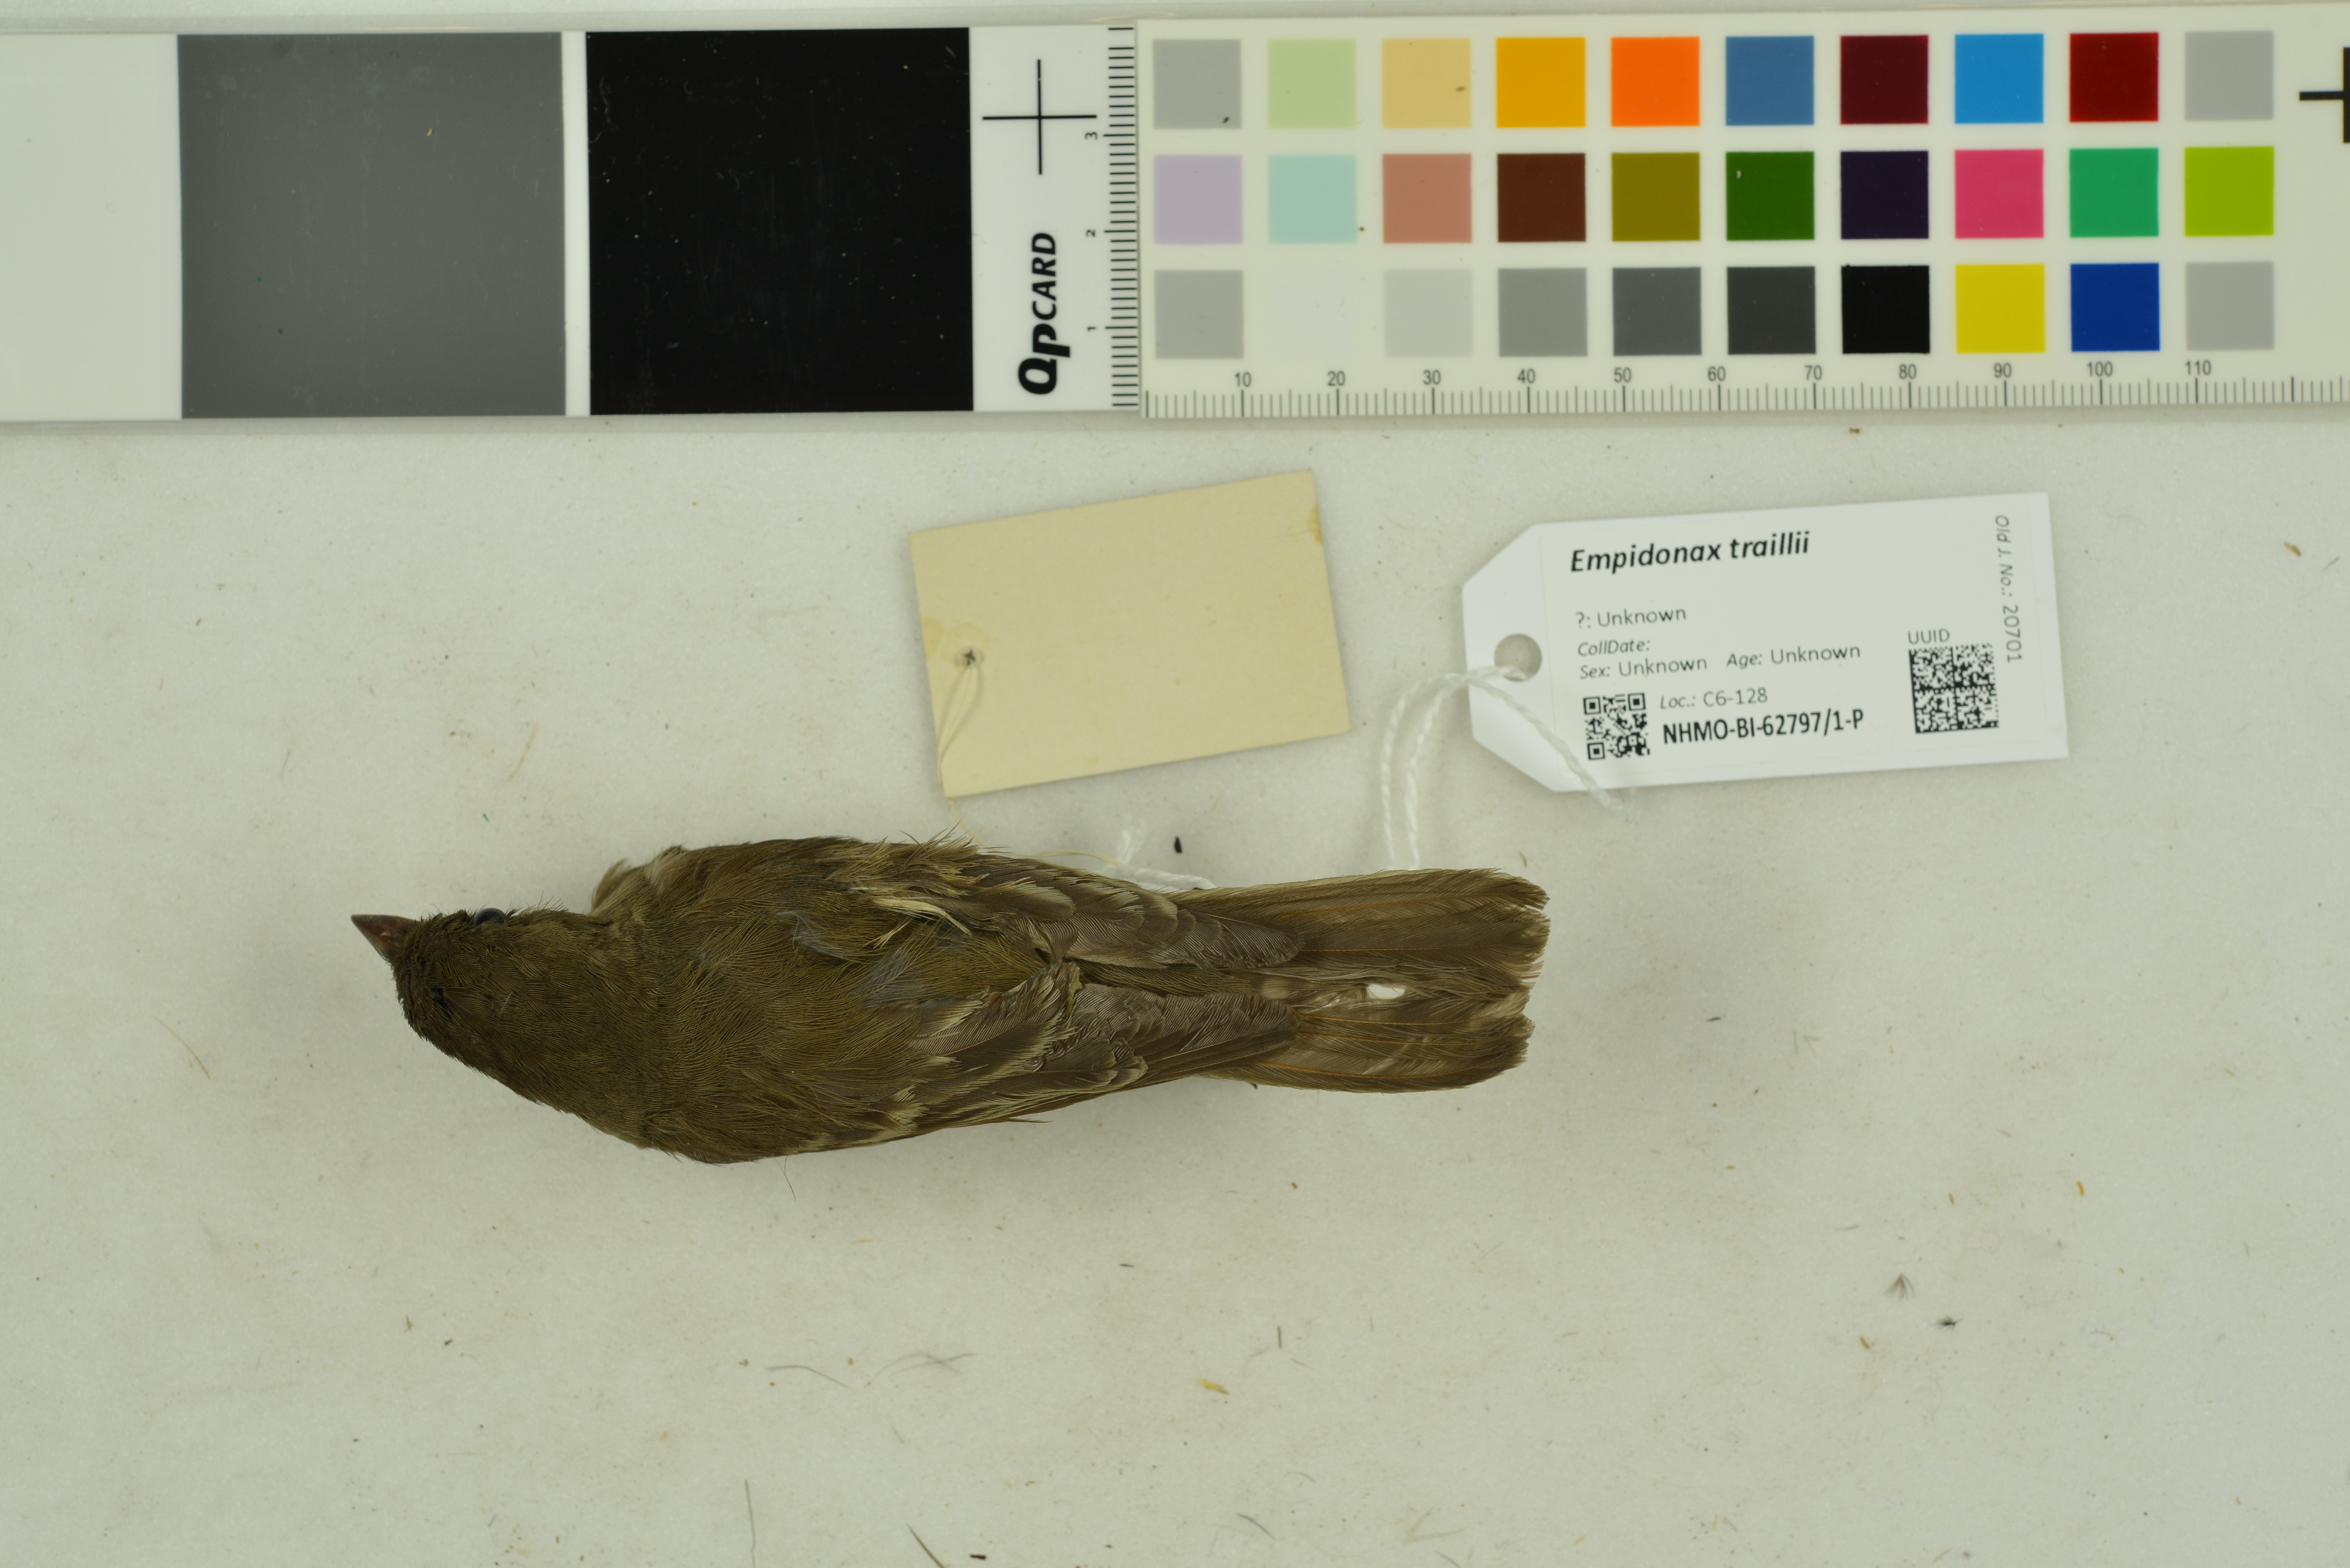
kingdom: Animalia
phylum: Chordata
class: Aves
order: Passeriformes
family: Tyrannidae
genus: Empidonax
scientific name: Empidonax traillii
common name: Willow flycatcher
